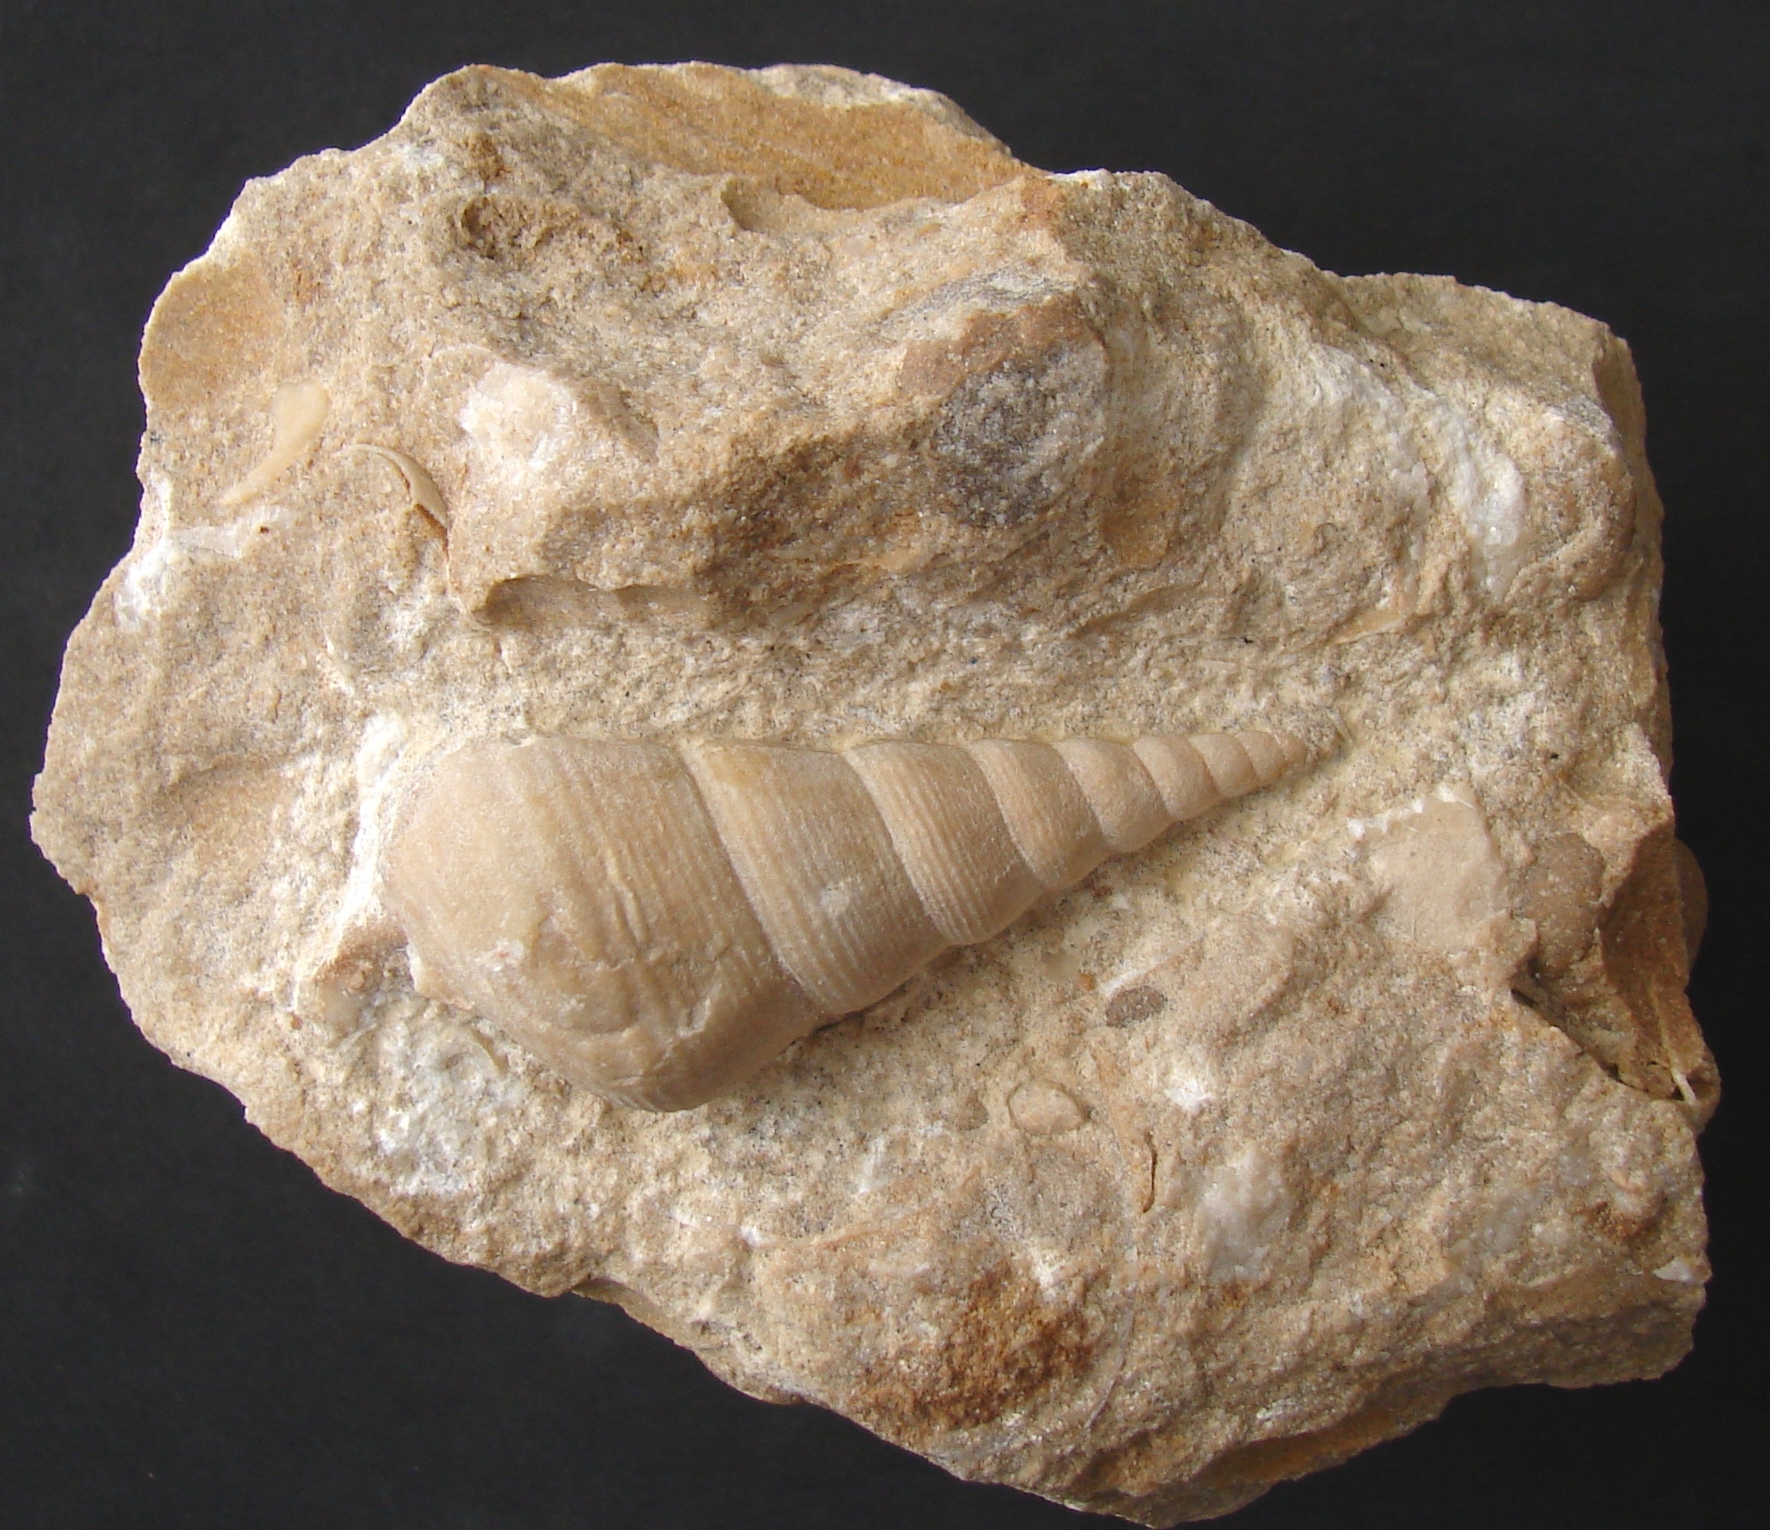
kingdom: Animalia
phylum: Mollusca
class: Gastropoda
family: Pseudomelaniidae
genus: Bourgetia
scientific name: Bourgetia
